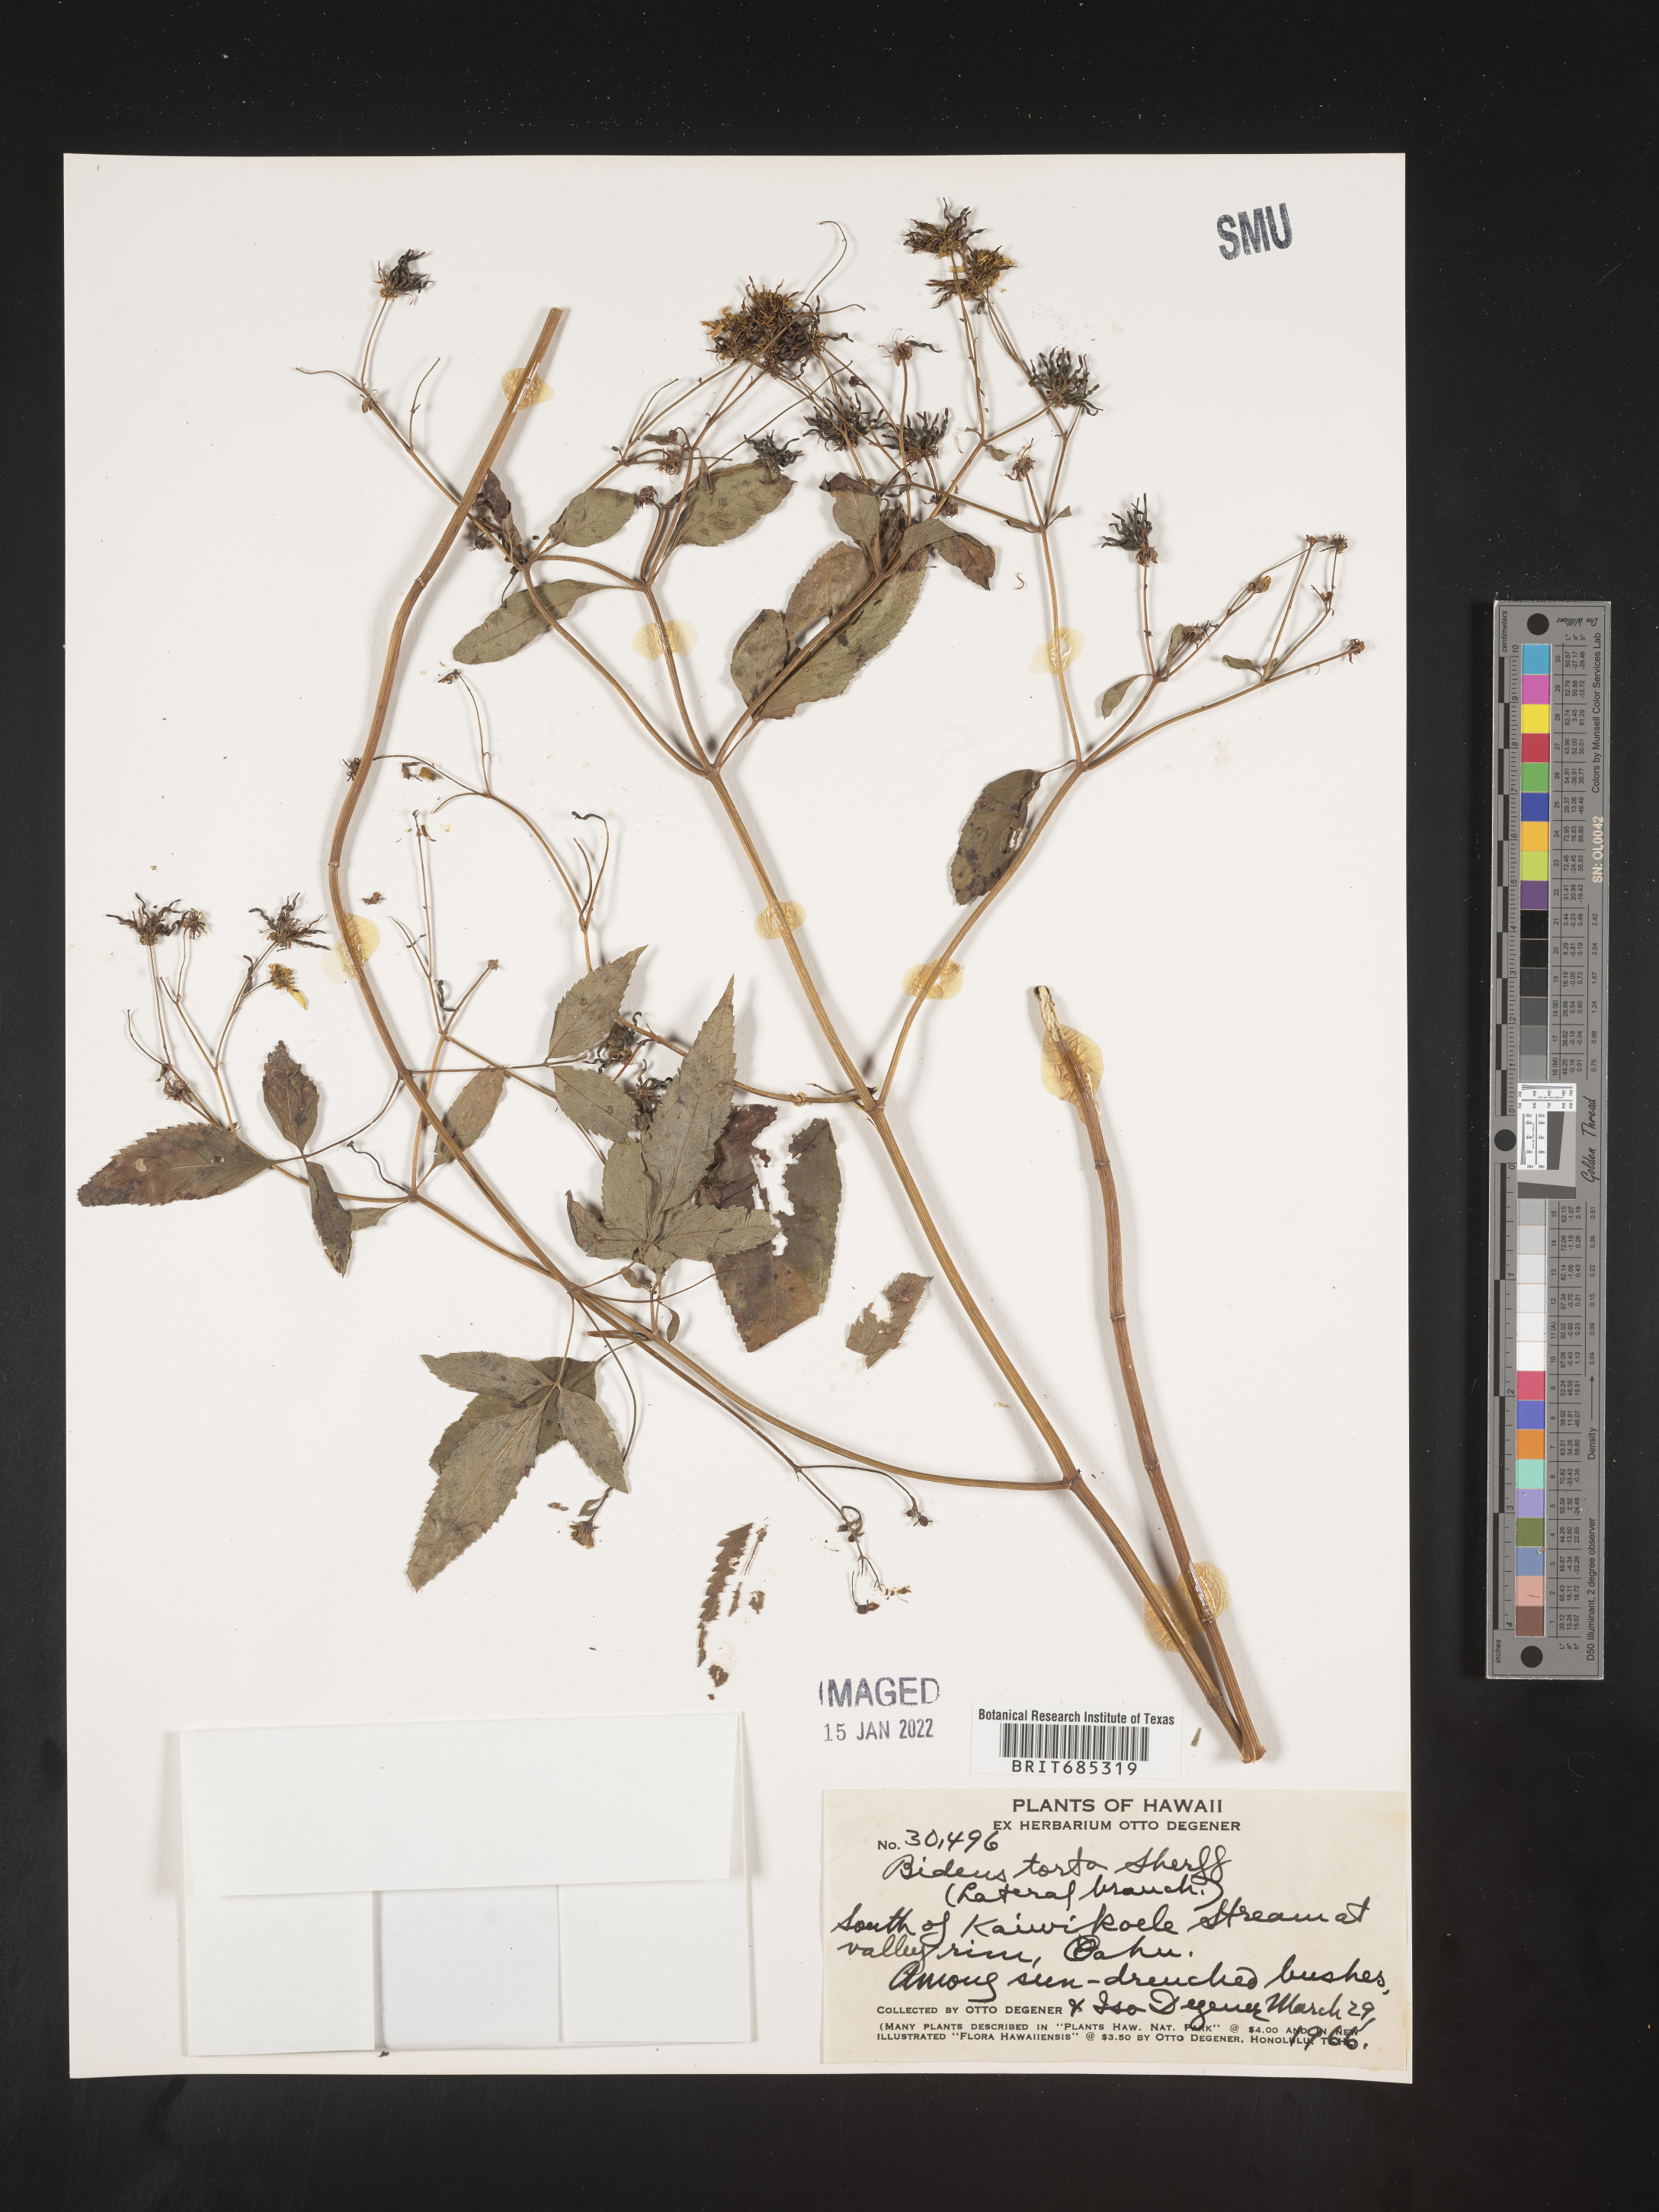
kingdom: Plantae
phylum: Tracheophyta
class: Magnoliopsida
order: Asterales
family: Asteraceae
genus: Bidens
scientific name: Bidens
